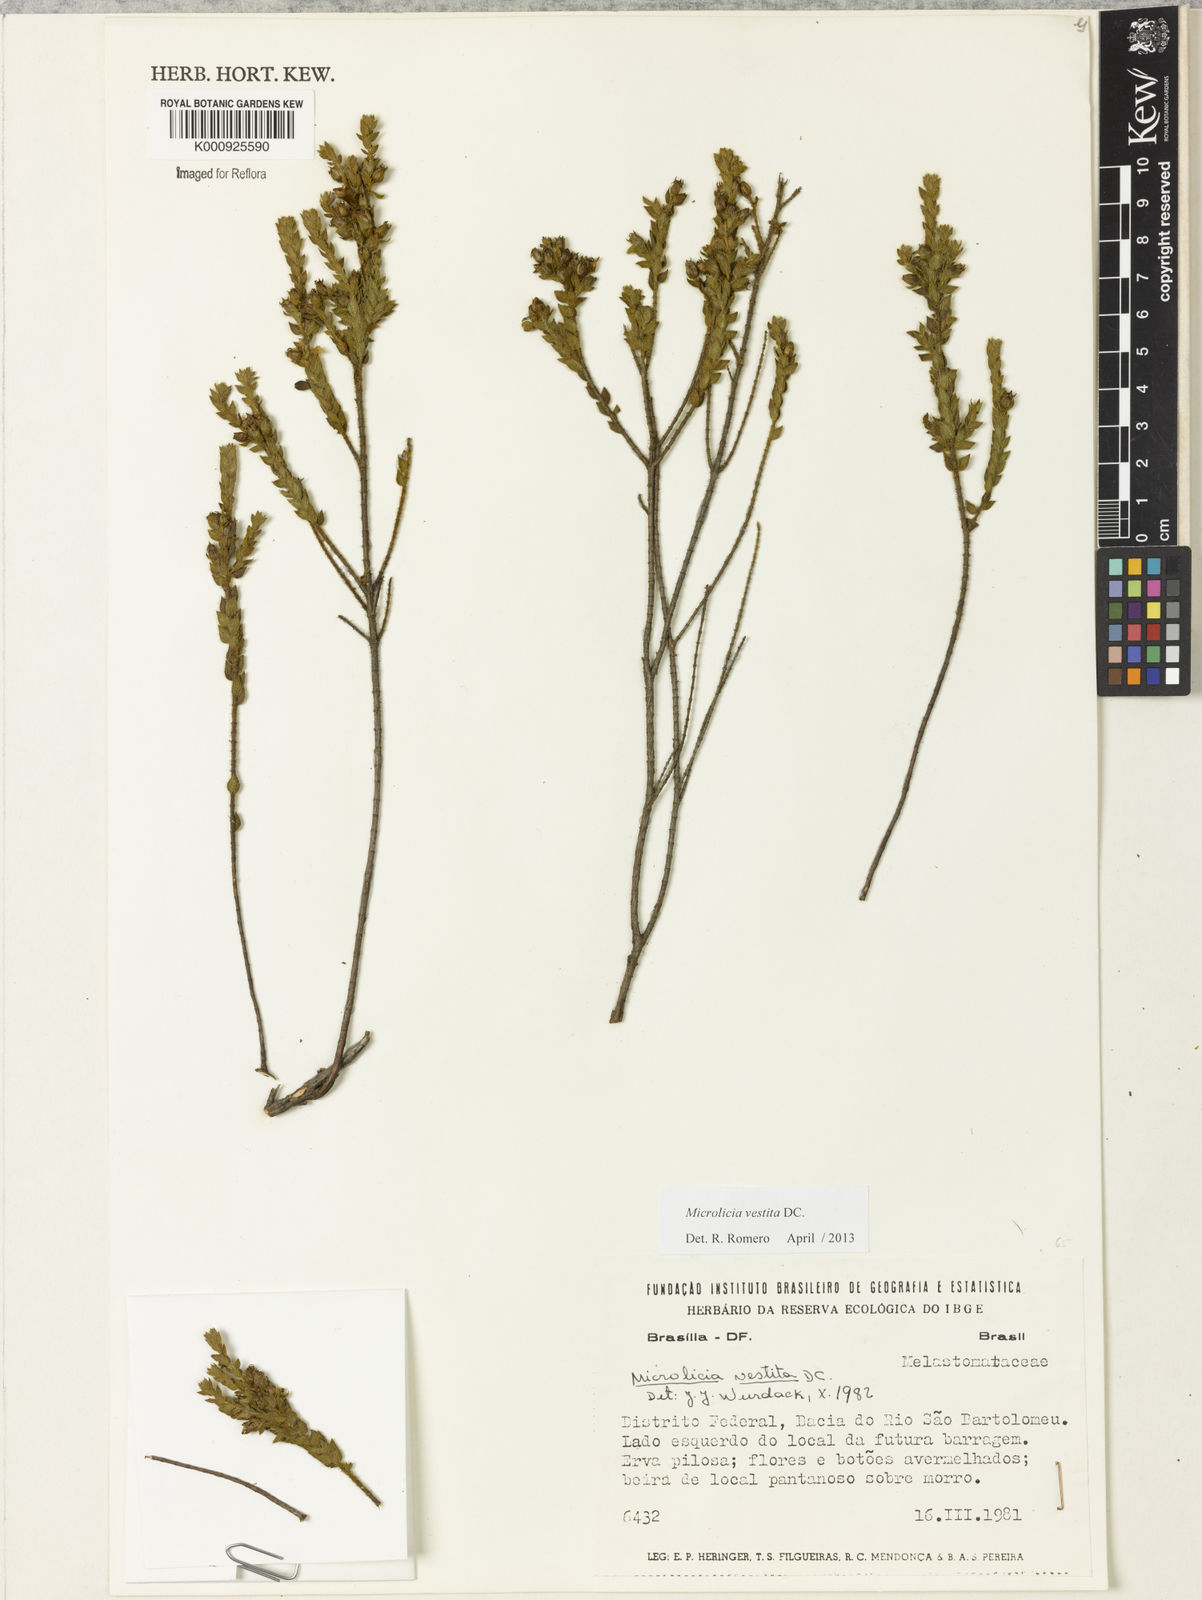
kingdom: Plantae
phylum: Tracheophyta
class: Magnoliopsida
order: Myrtales
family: Melastomataceae
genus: Microlicia
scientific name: Microlicia vestita
